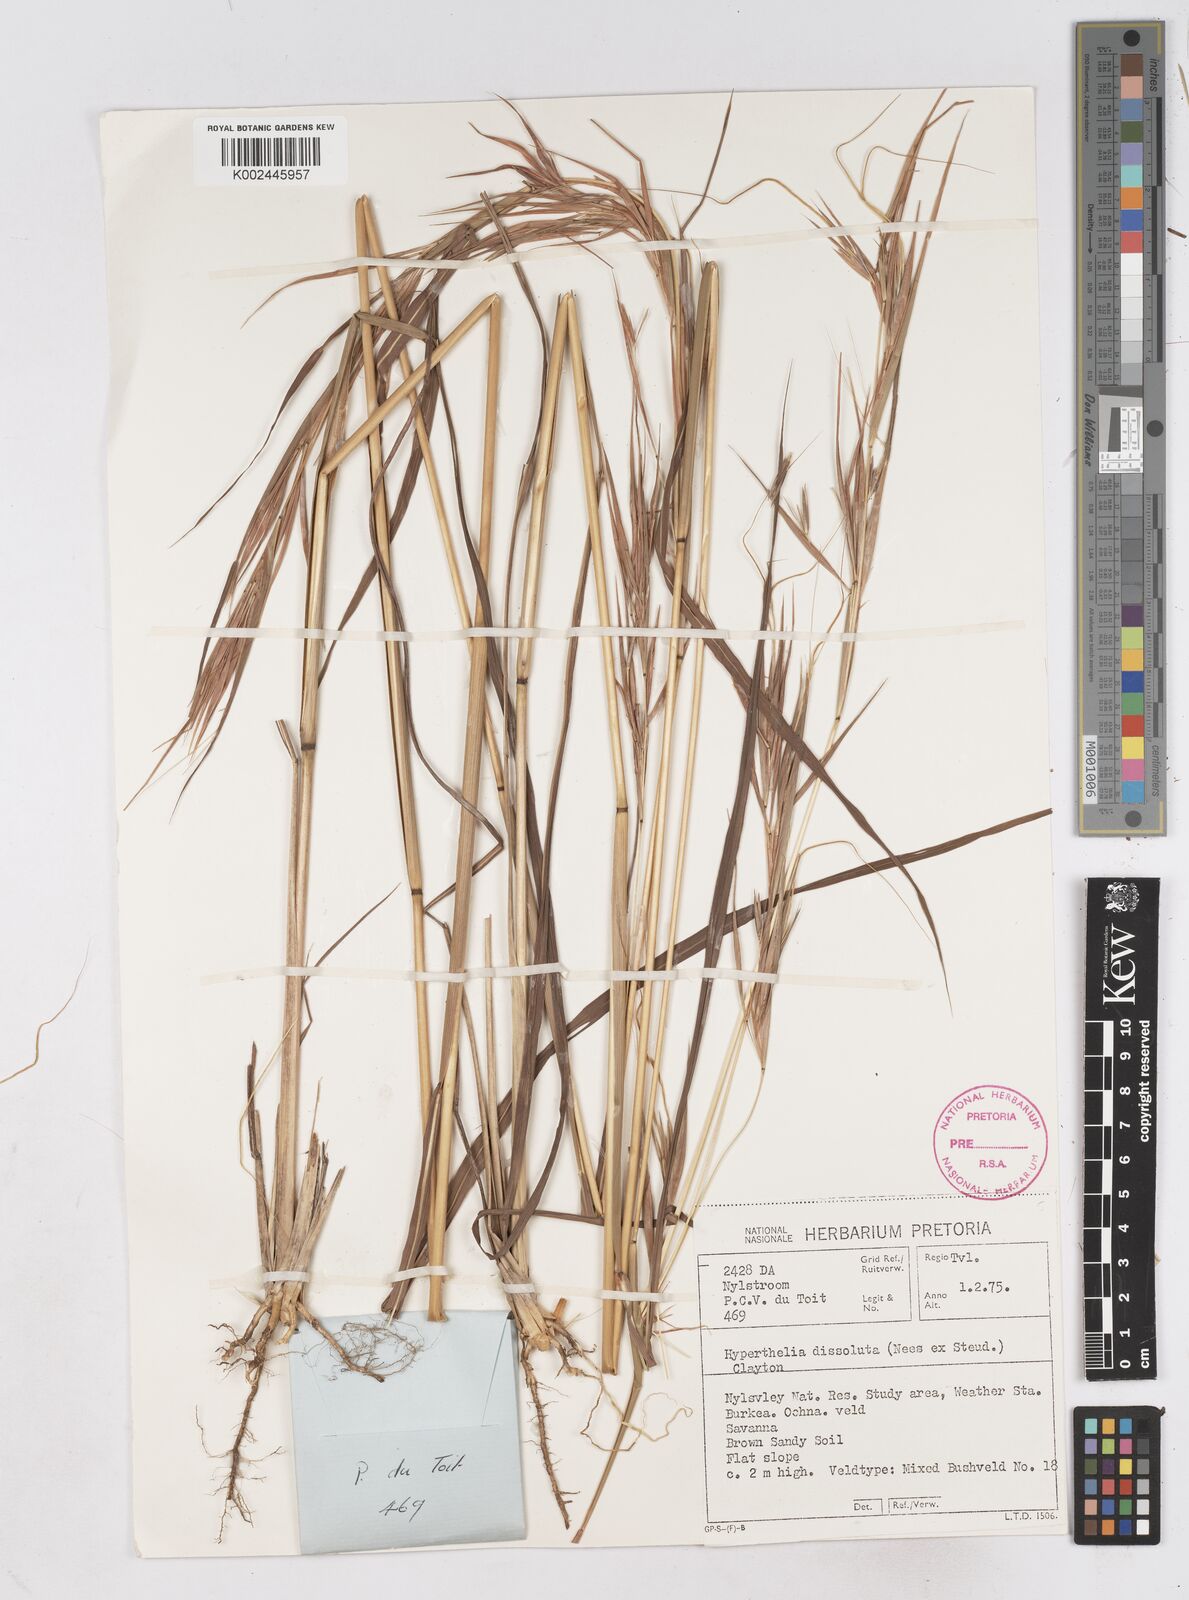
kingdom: Plantae
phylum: Tracheophyta
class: Liliopsida
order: Poales
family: Poaceae
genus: Hyperthelia
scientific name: Hyperthelia dissoluta
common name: Yellow thatching grass
